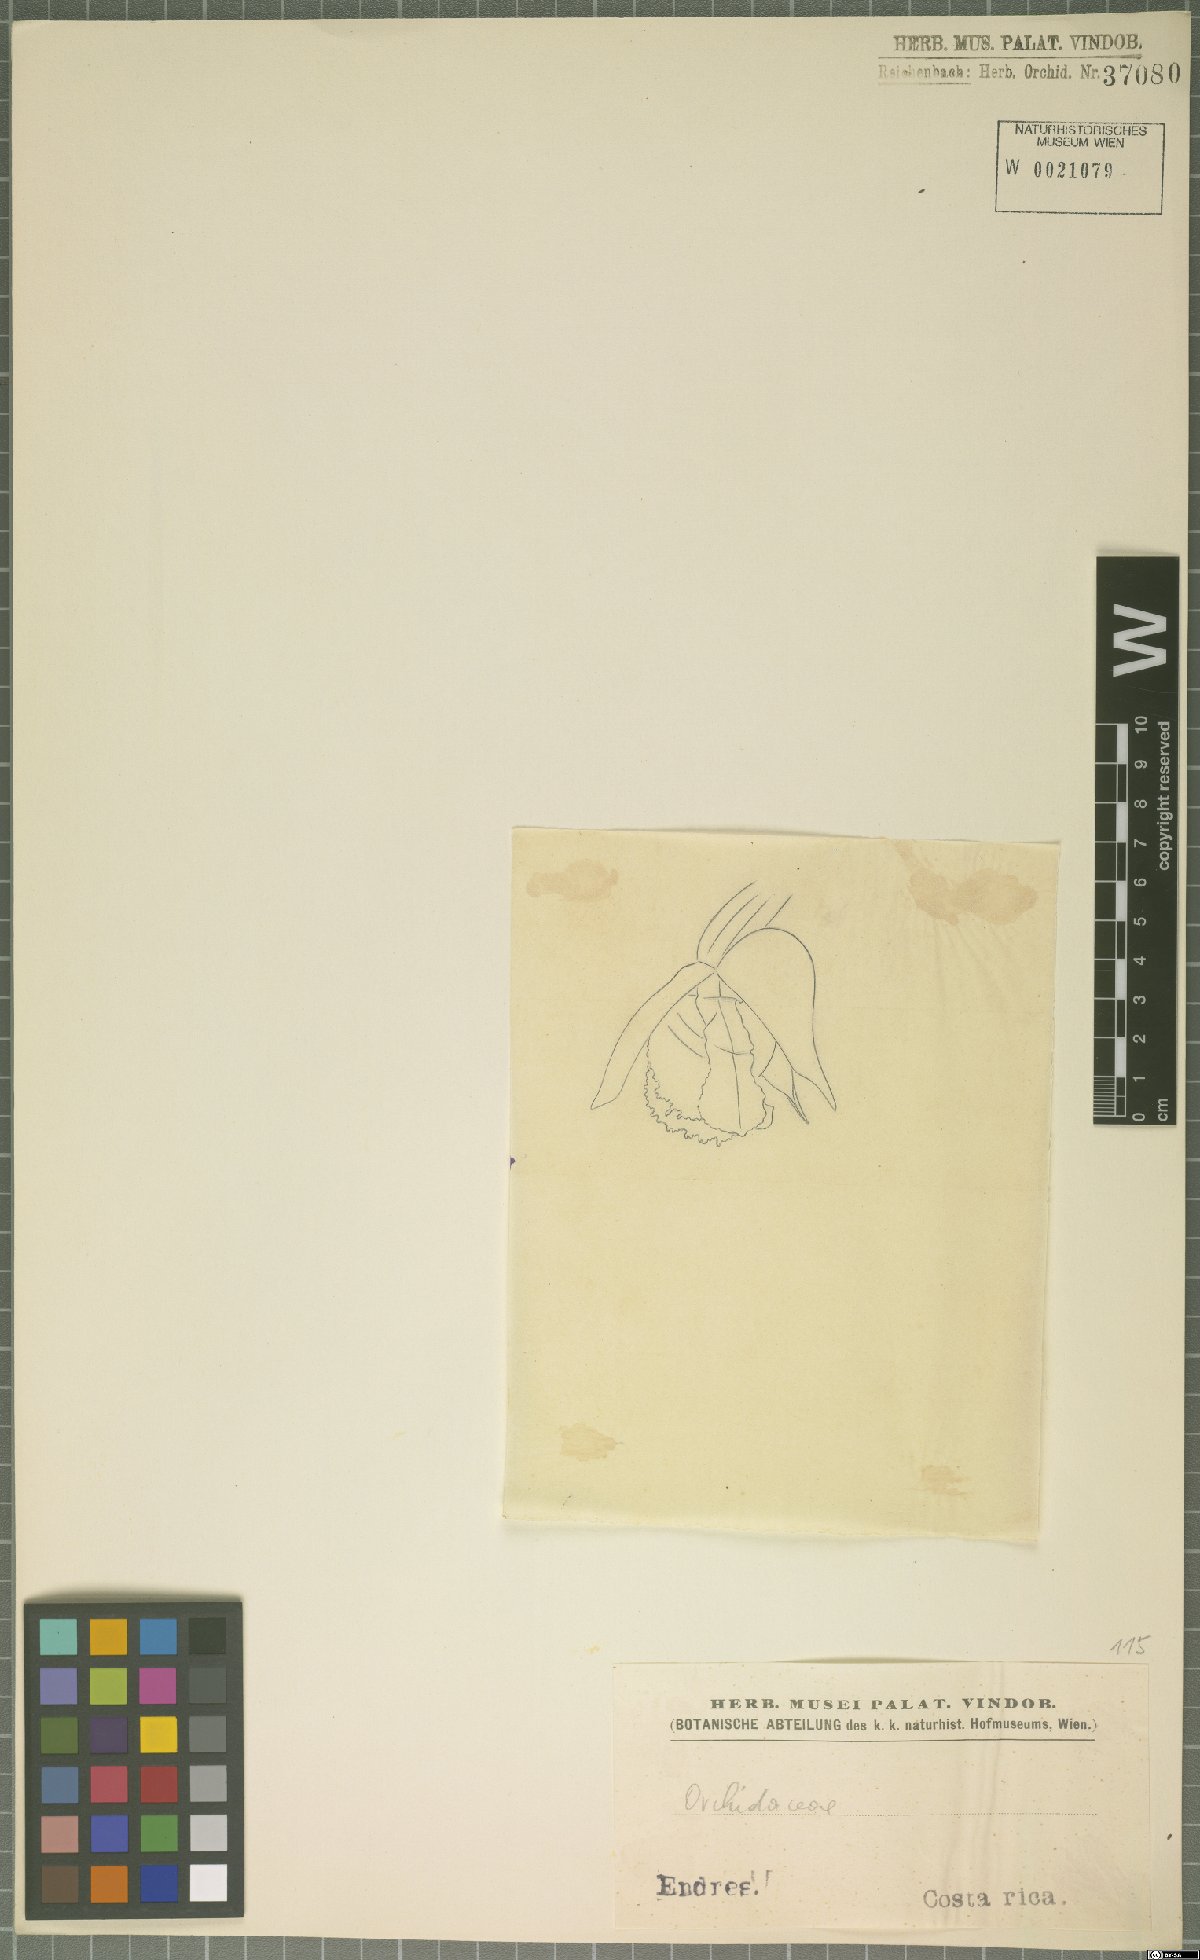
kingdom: Plantae
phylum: Tracheophyta
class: Liliopsida
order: Asparagales
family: Orchidaceae
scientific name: Orchidaceae
